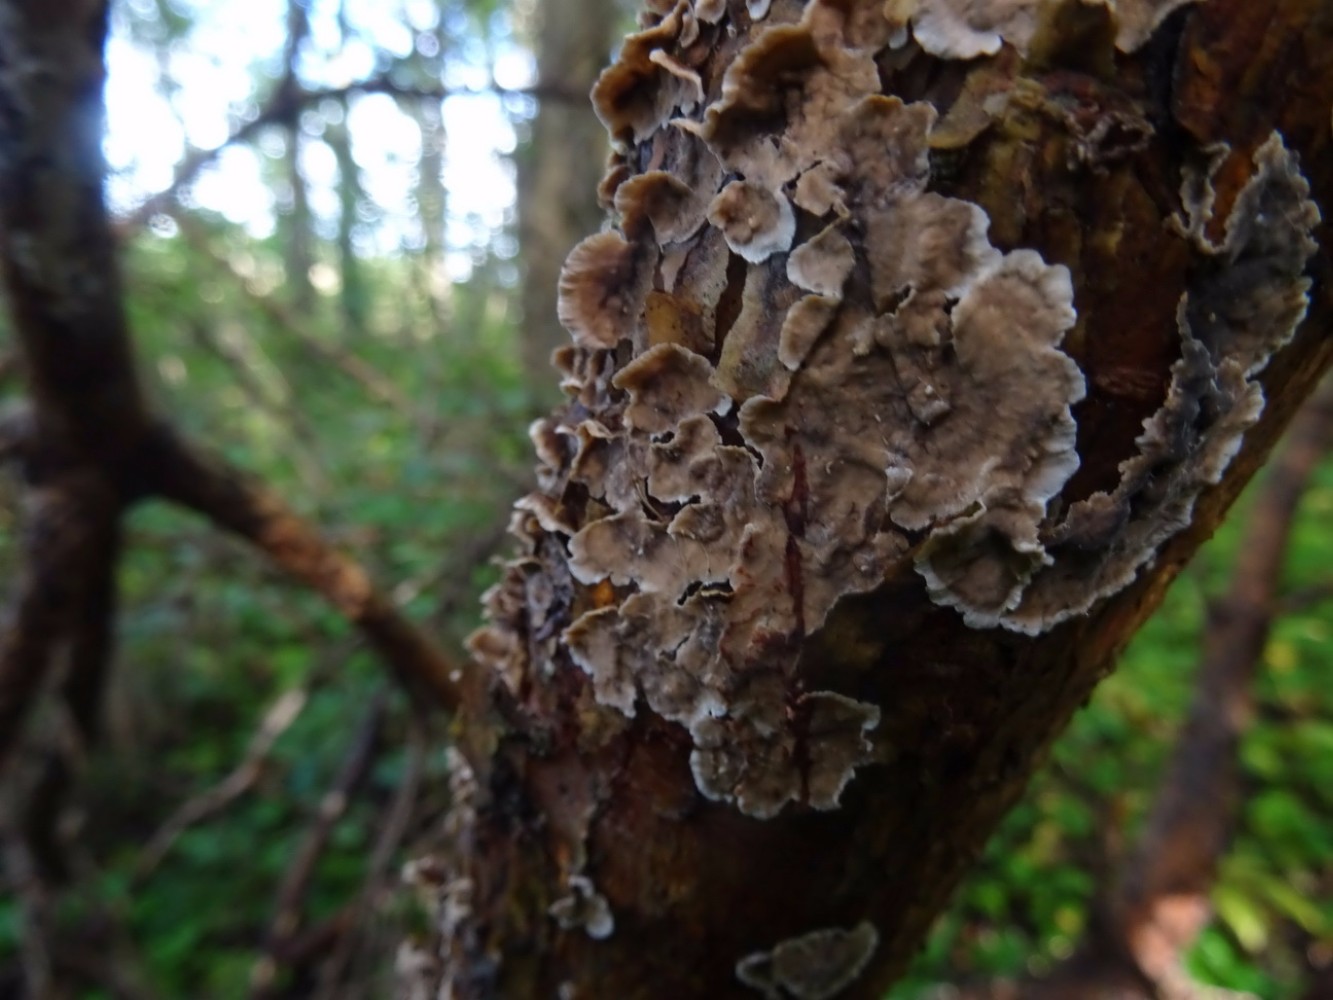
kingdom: Fungi
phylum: Basidiomycota
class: Agaricomycetes
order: Russulales
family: Stereaceae
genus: Stereum
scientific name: Stereum sanguinolentum
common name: blødende lædersvamp
